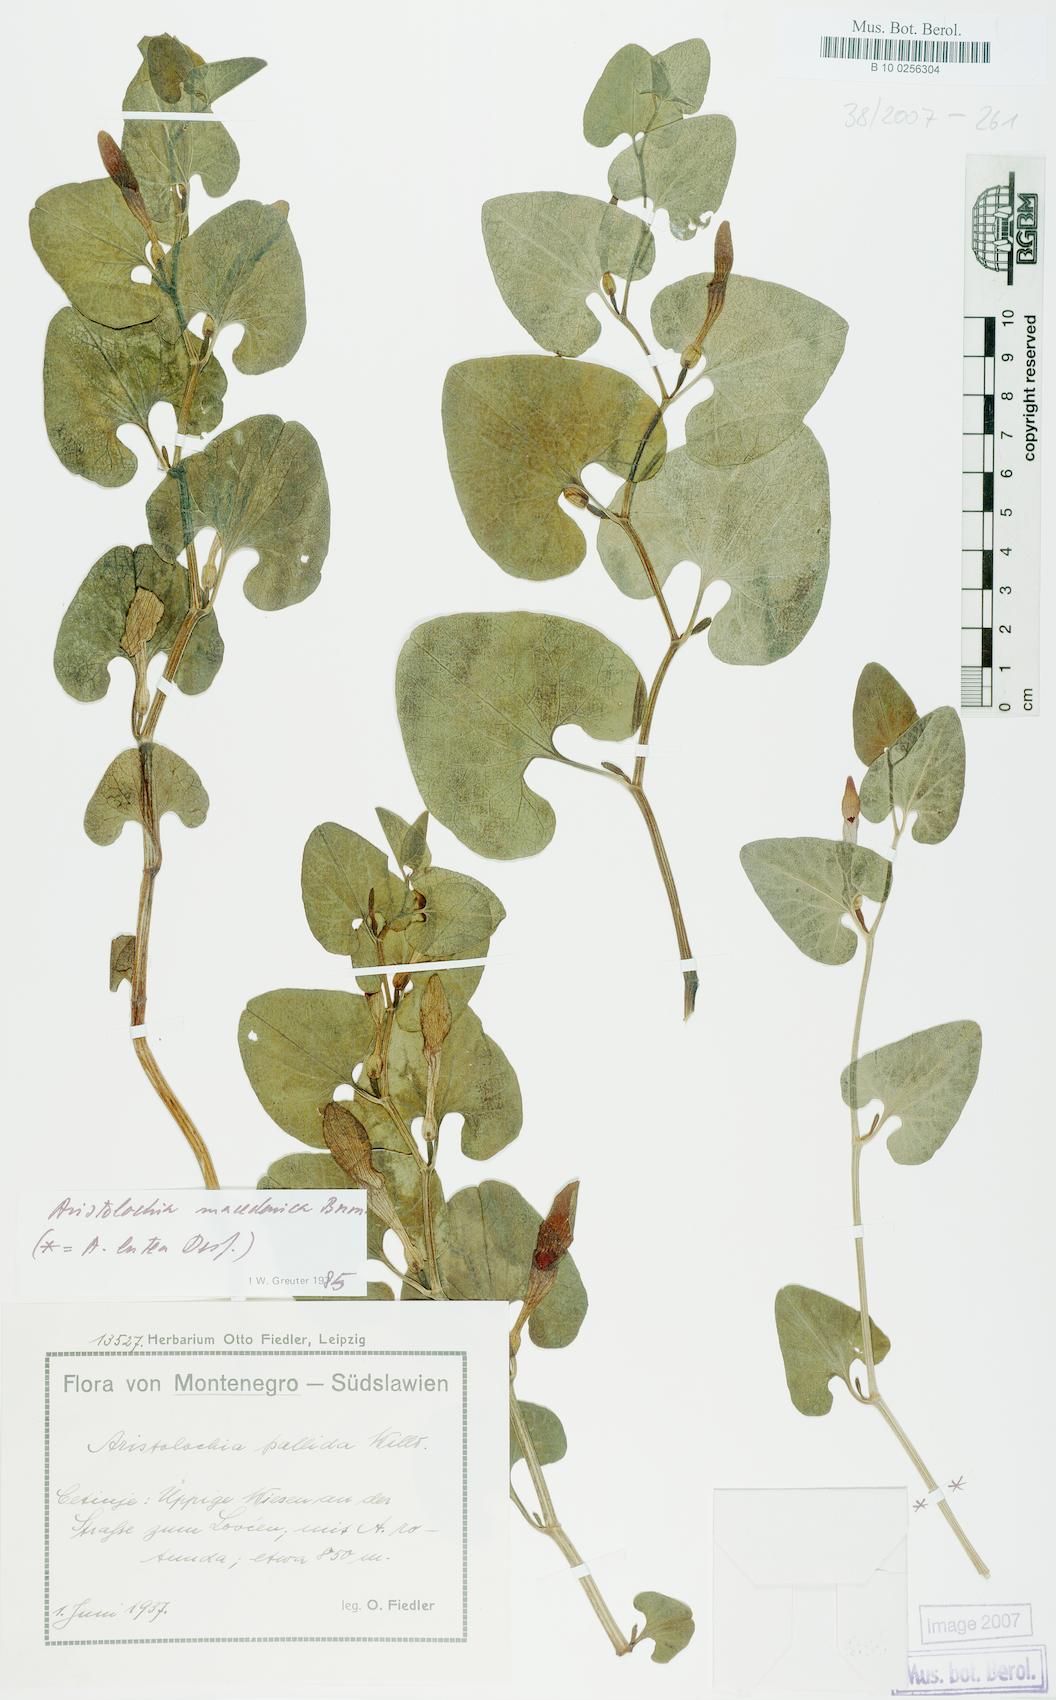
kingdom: Plantae
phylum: Tracheophyta
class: Magnoliopsida
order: Piperales
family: Aristolochiaceae
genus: Aristolochia
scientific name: Aristolochia pallida
